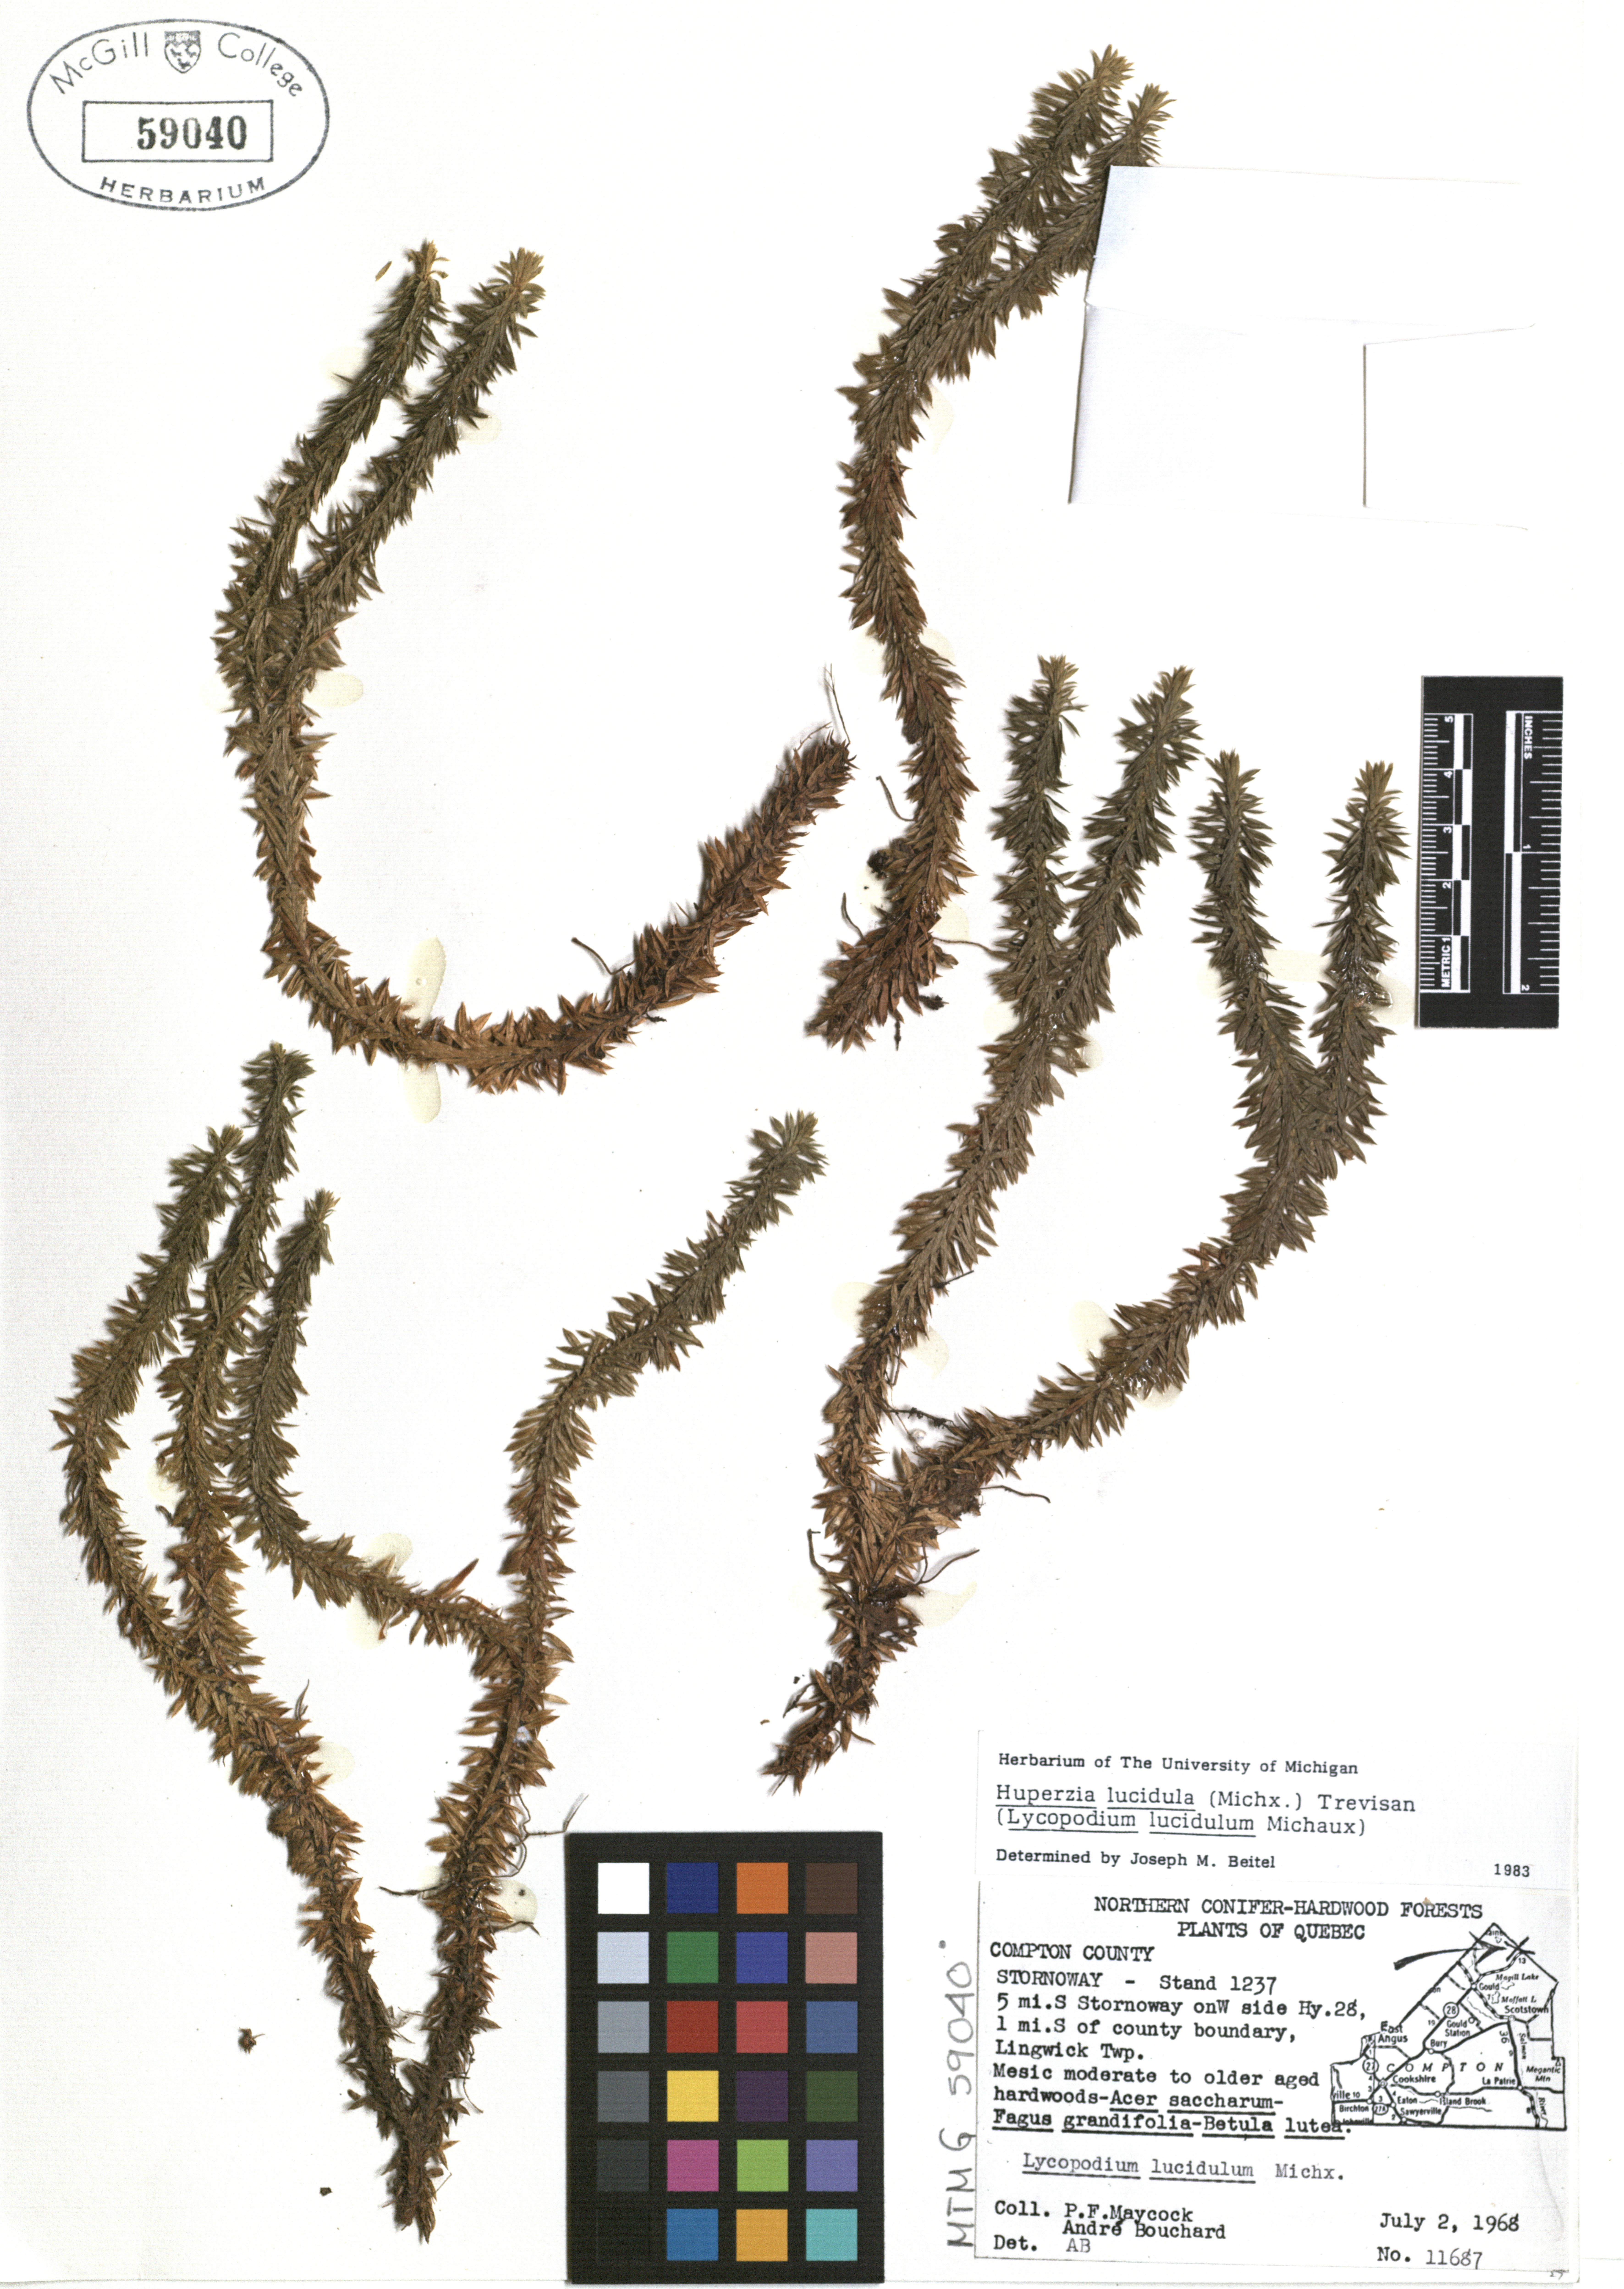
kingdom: Plantae
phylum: Tracheophyta
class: Lycopodiopsida
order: Lycopodiales
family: Lycopodiaceae
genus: Huperzia
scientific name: Huperzia lucidula
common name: Shining clubmoss
